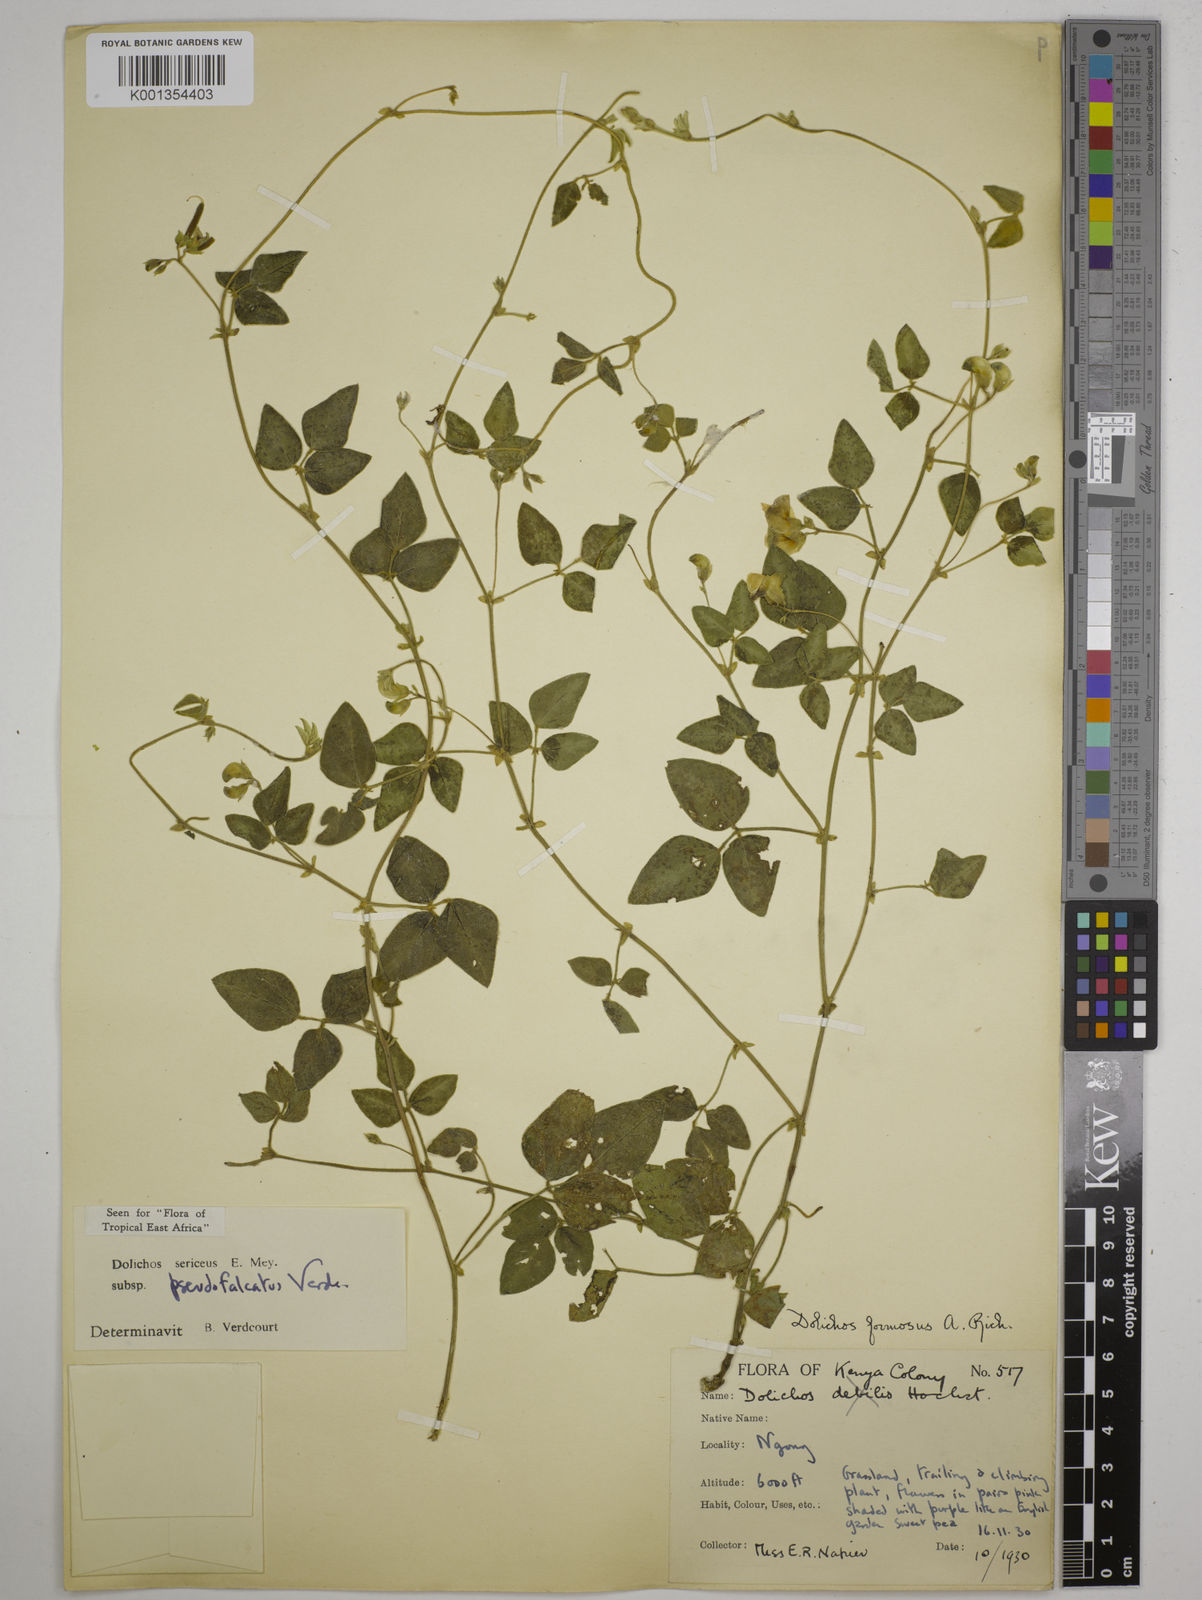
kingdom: Plantae
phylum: Tracheophyta
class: Magnoliopsida
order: Fabales
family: Fabaceae
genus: Dolichos
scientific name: Dolichos
